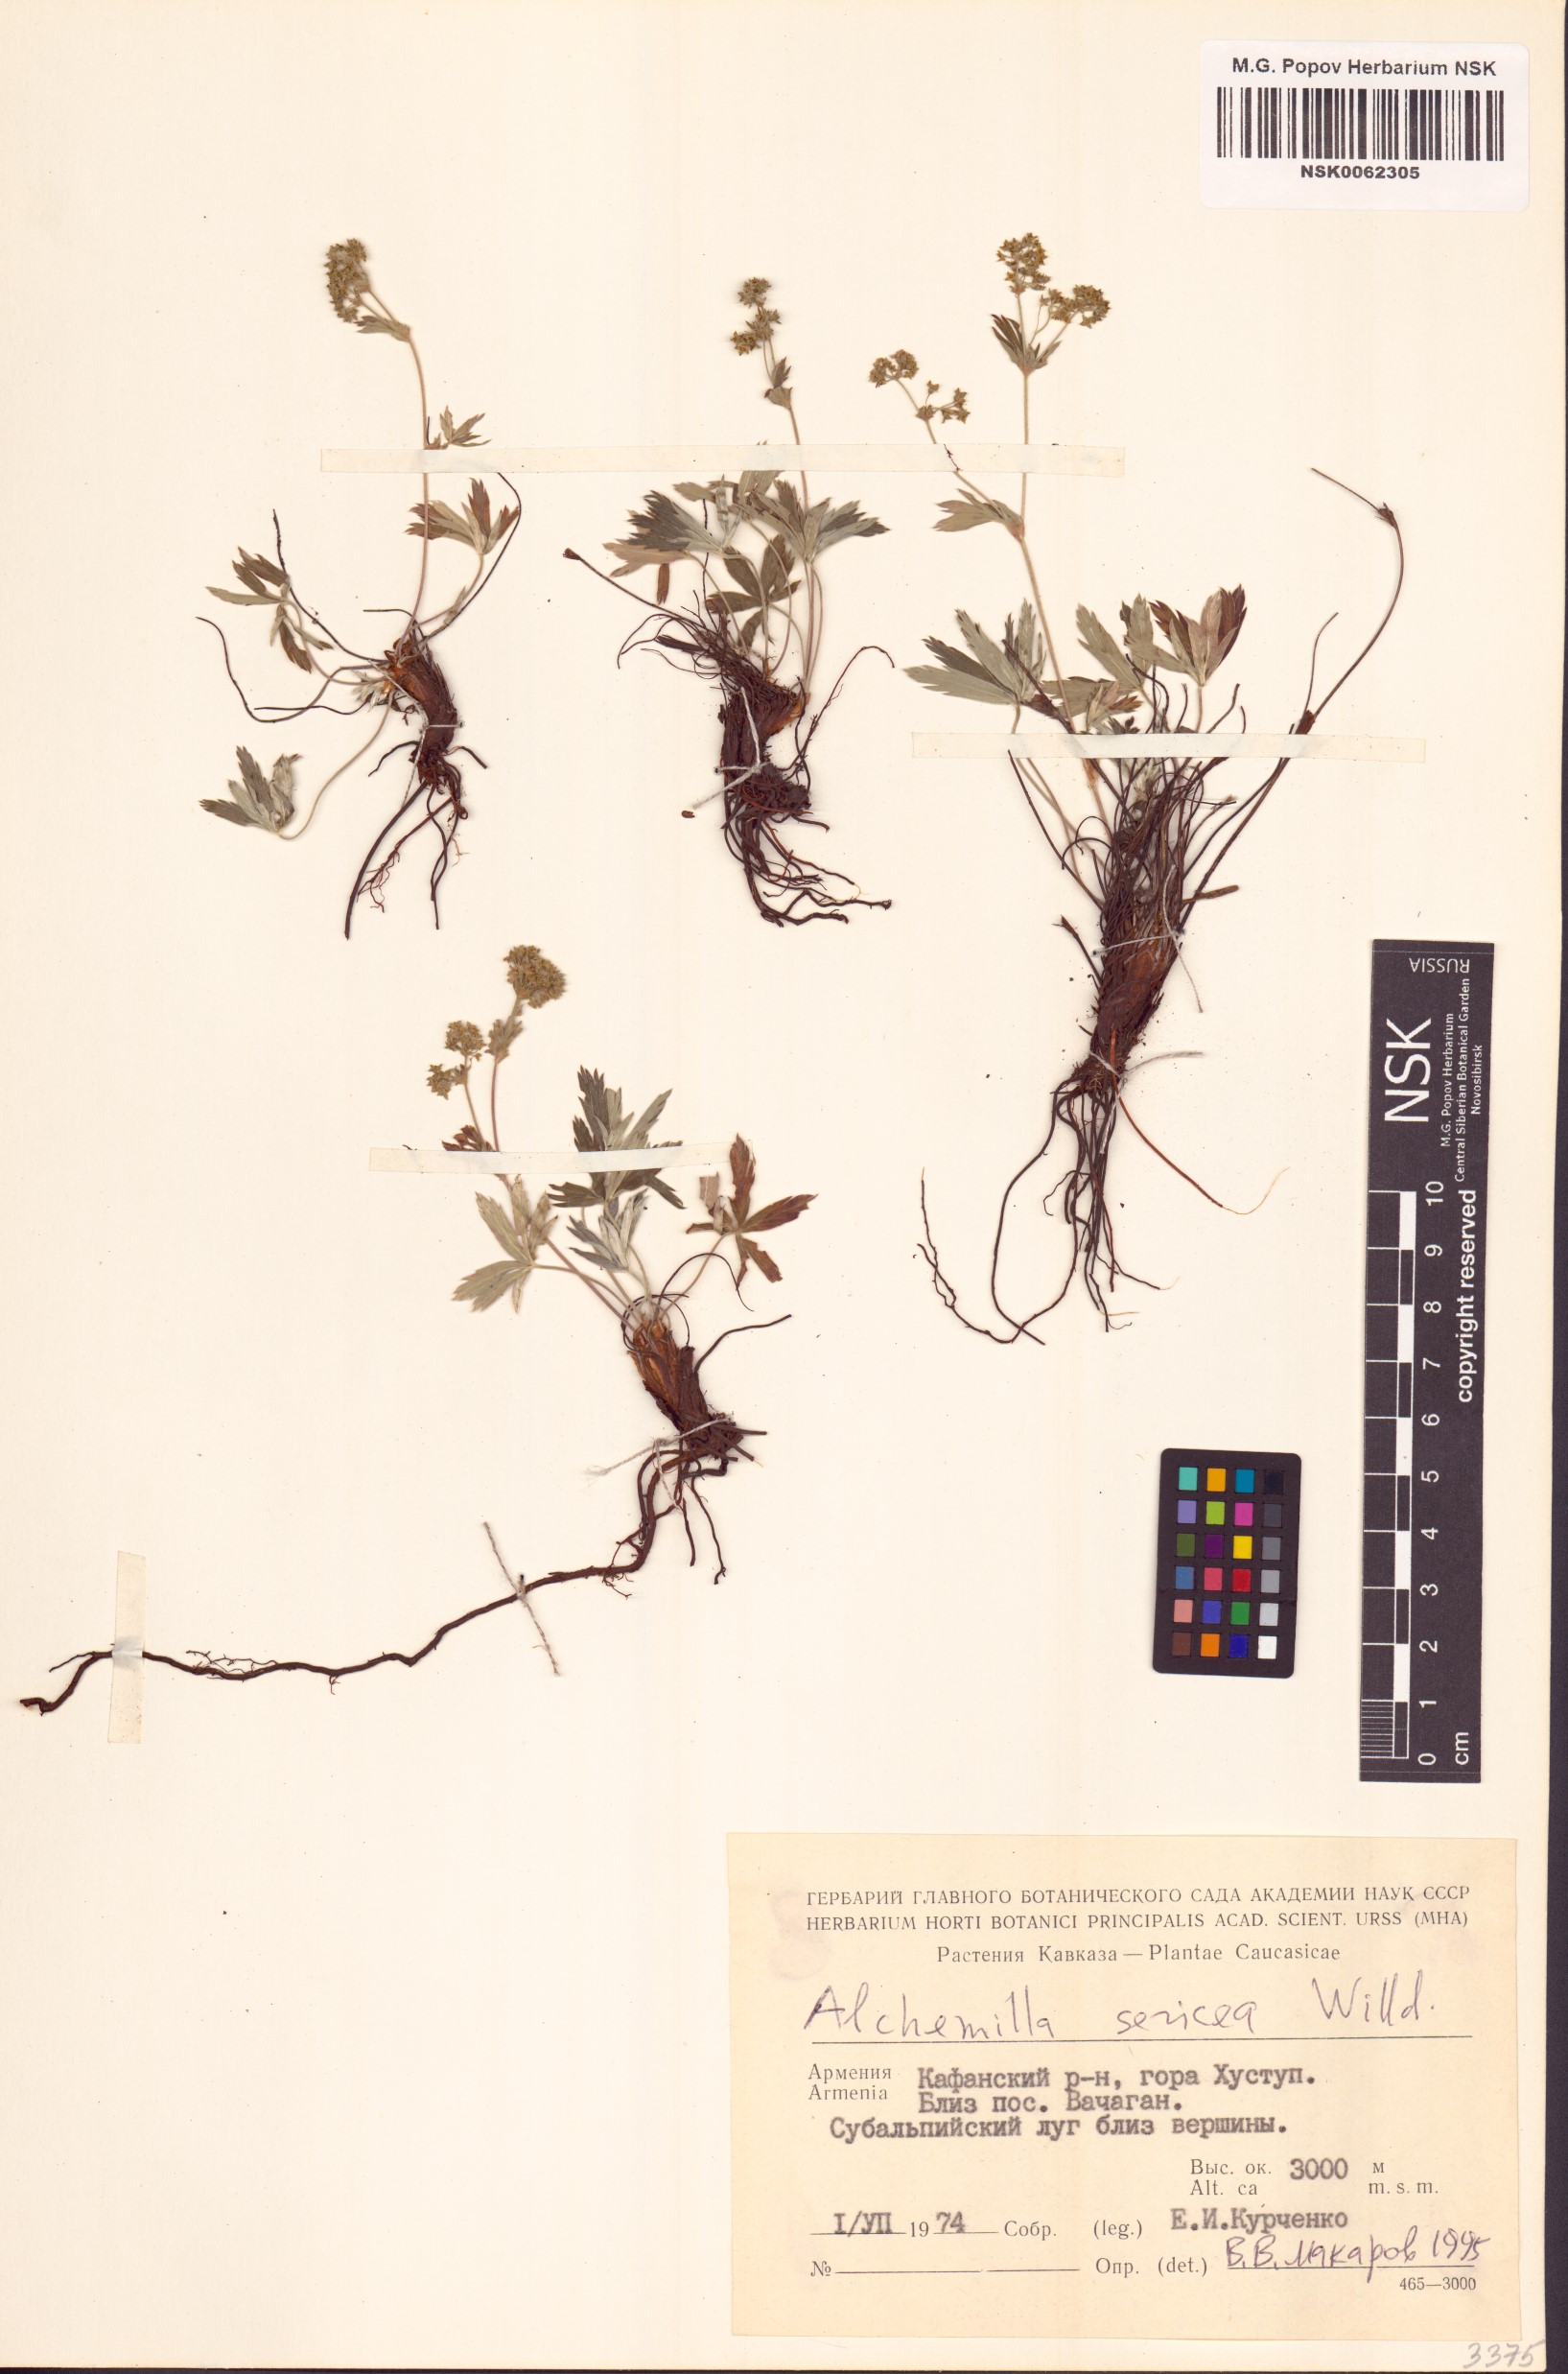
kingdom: Plantae
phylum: Tracheophyta
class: Magnoliopsida
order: Rosales
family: Rosaceae
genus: Alchemilla
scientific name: Alchemilla sericea
